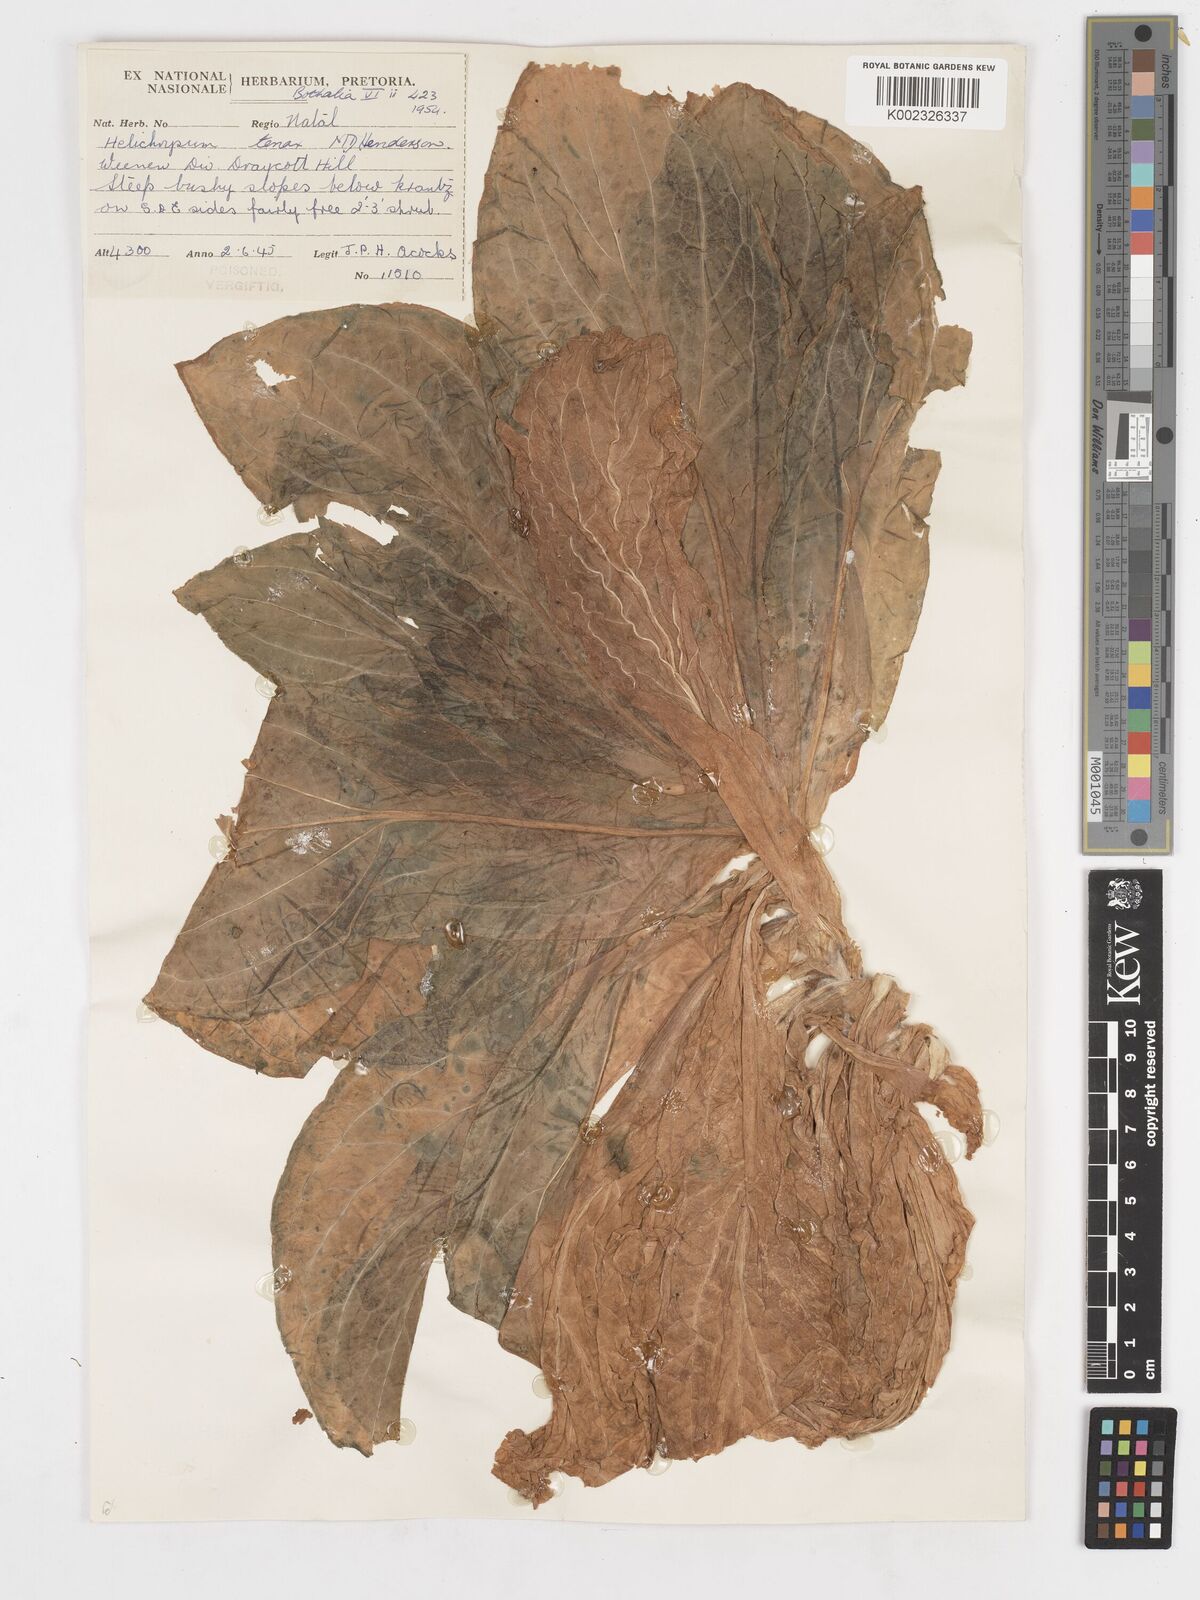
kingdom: Plantae
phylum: Tracheophyta
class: Magnoliopsida
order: Asterales
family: Asteraceae
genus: Helichrysum
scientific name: Helichrysum tenax
